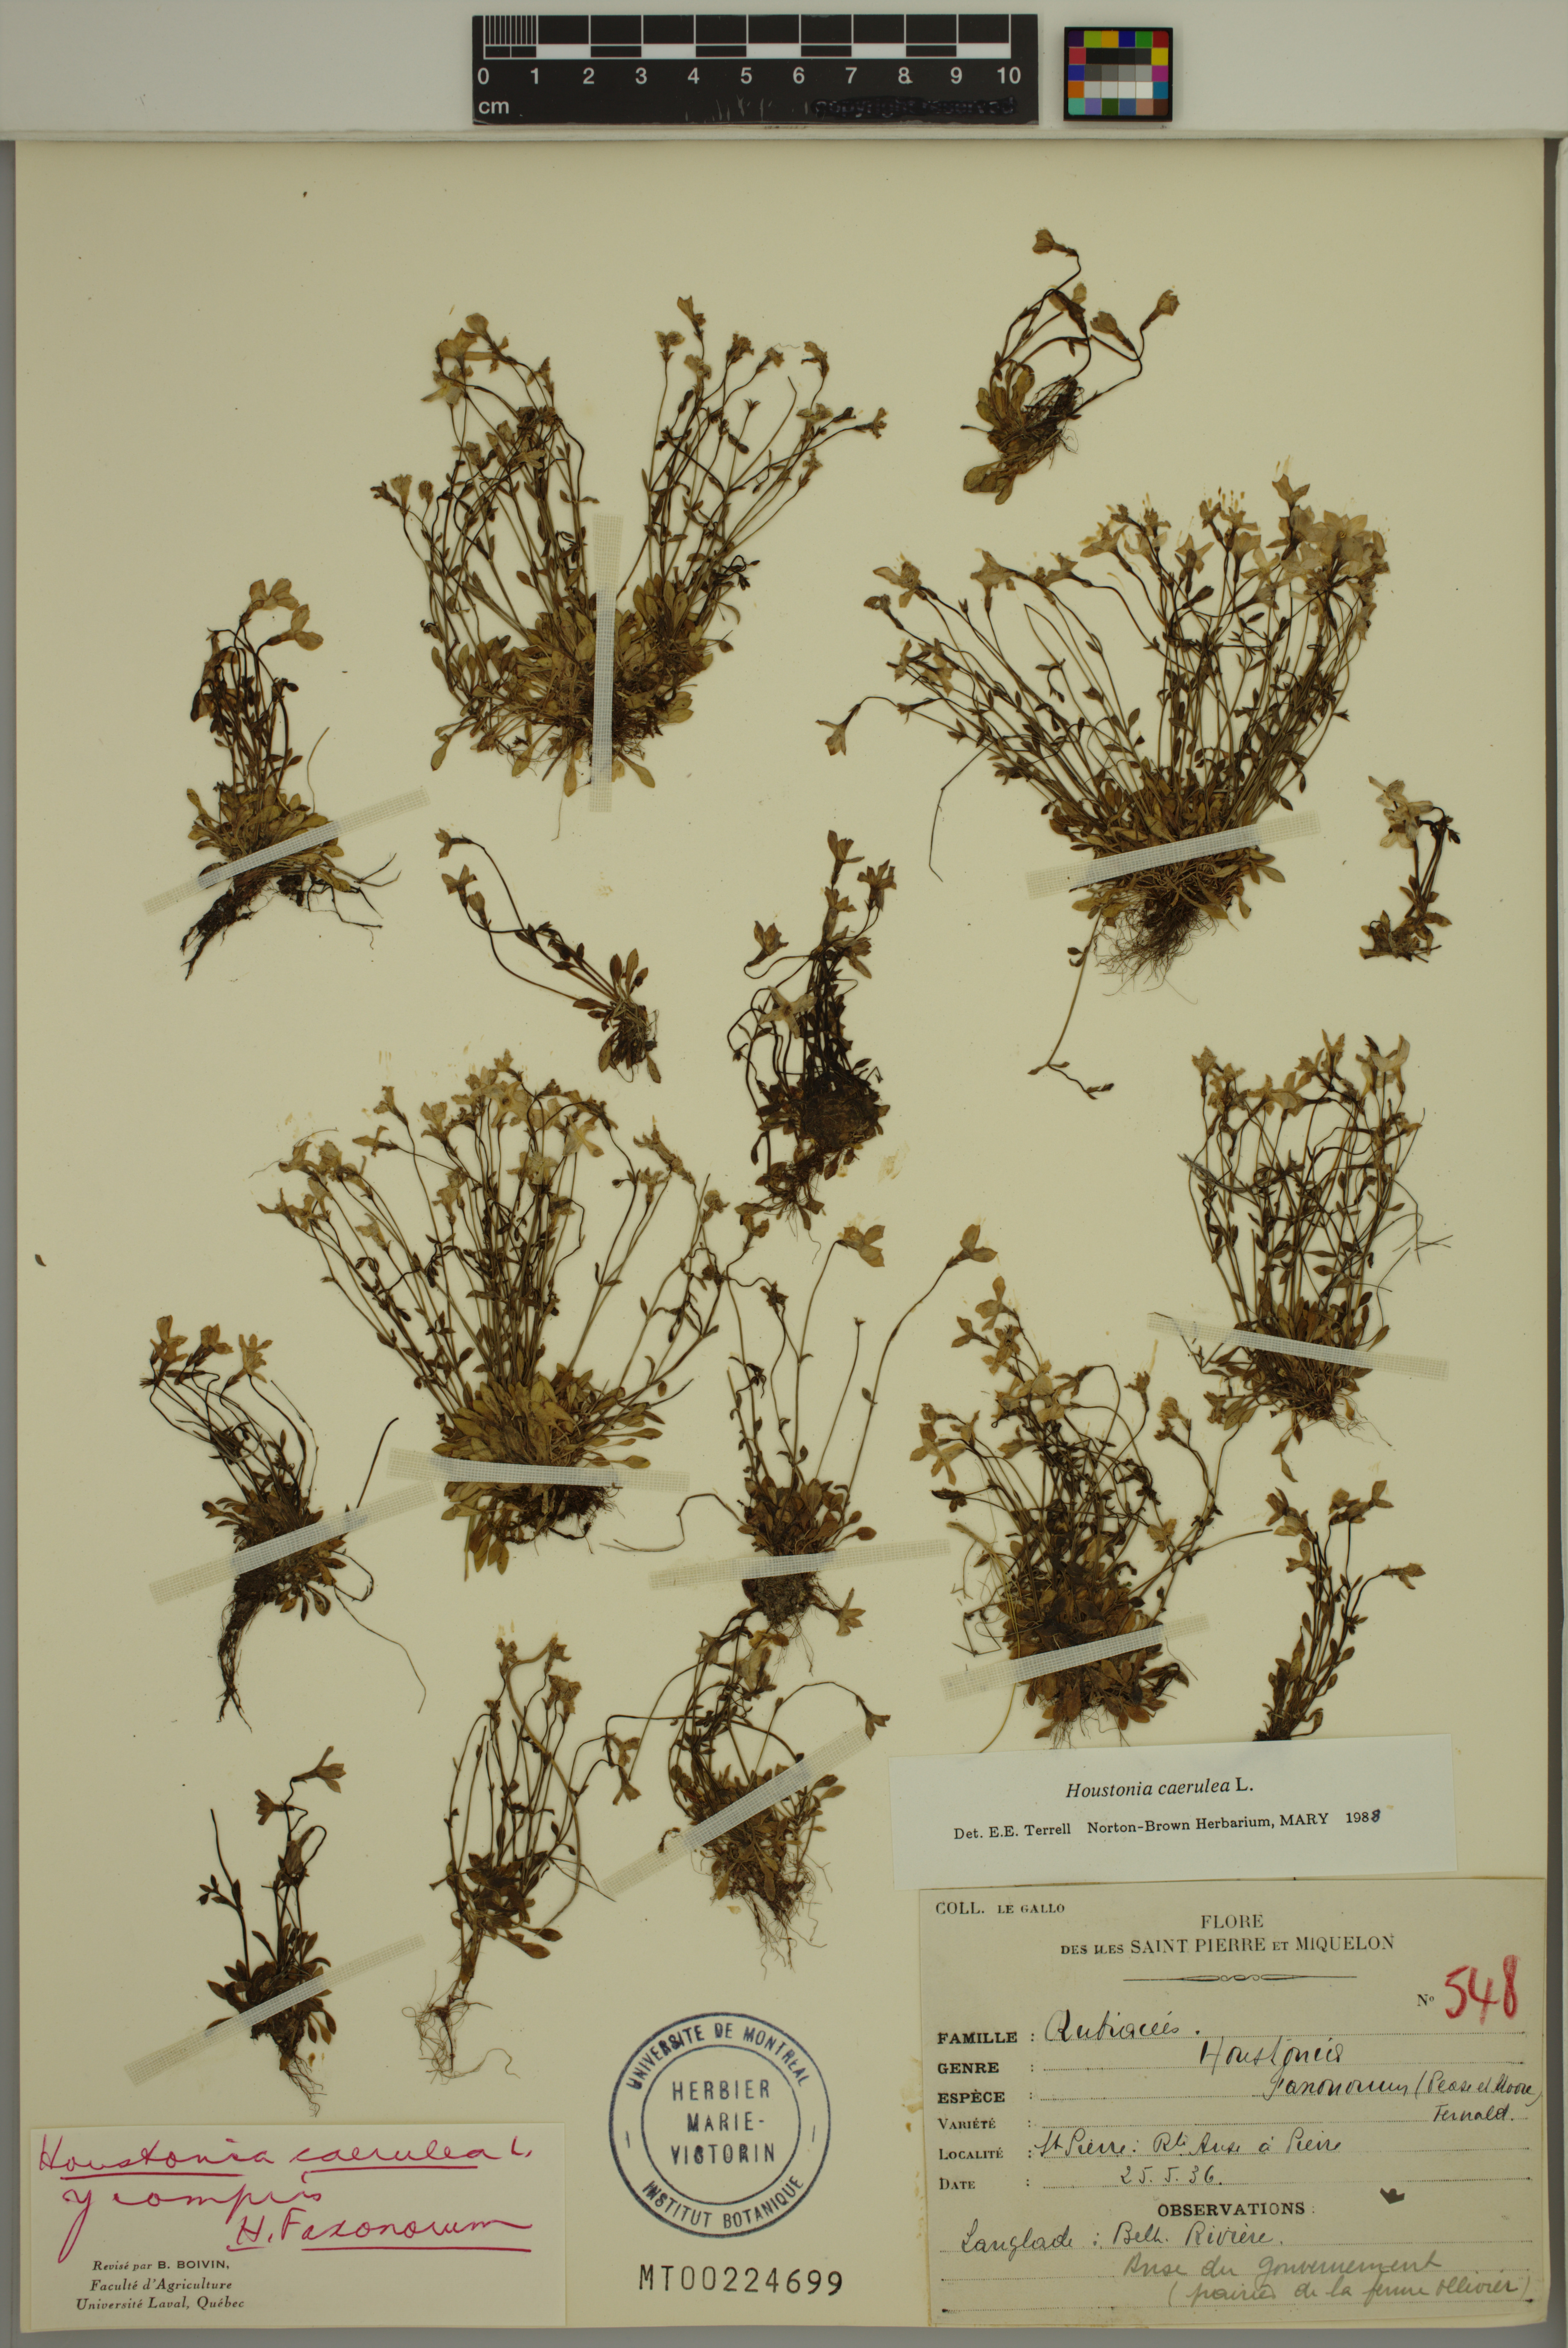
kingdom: Plantae
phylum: Tracheophyta
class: Magnoliopsida
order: Gentianales
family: Rubiaceae
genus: Houstonia
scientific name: Houstonia caerulea
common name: Bluets
